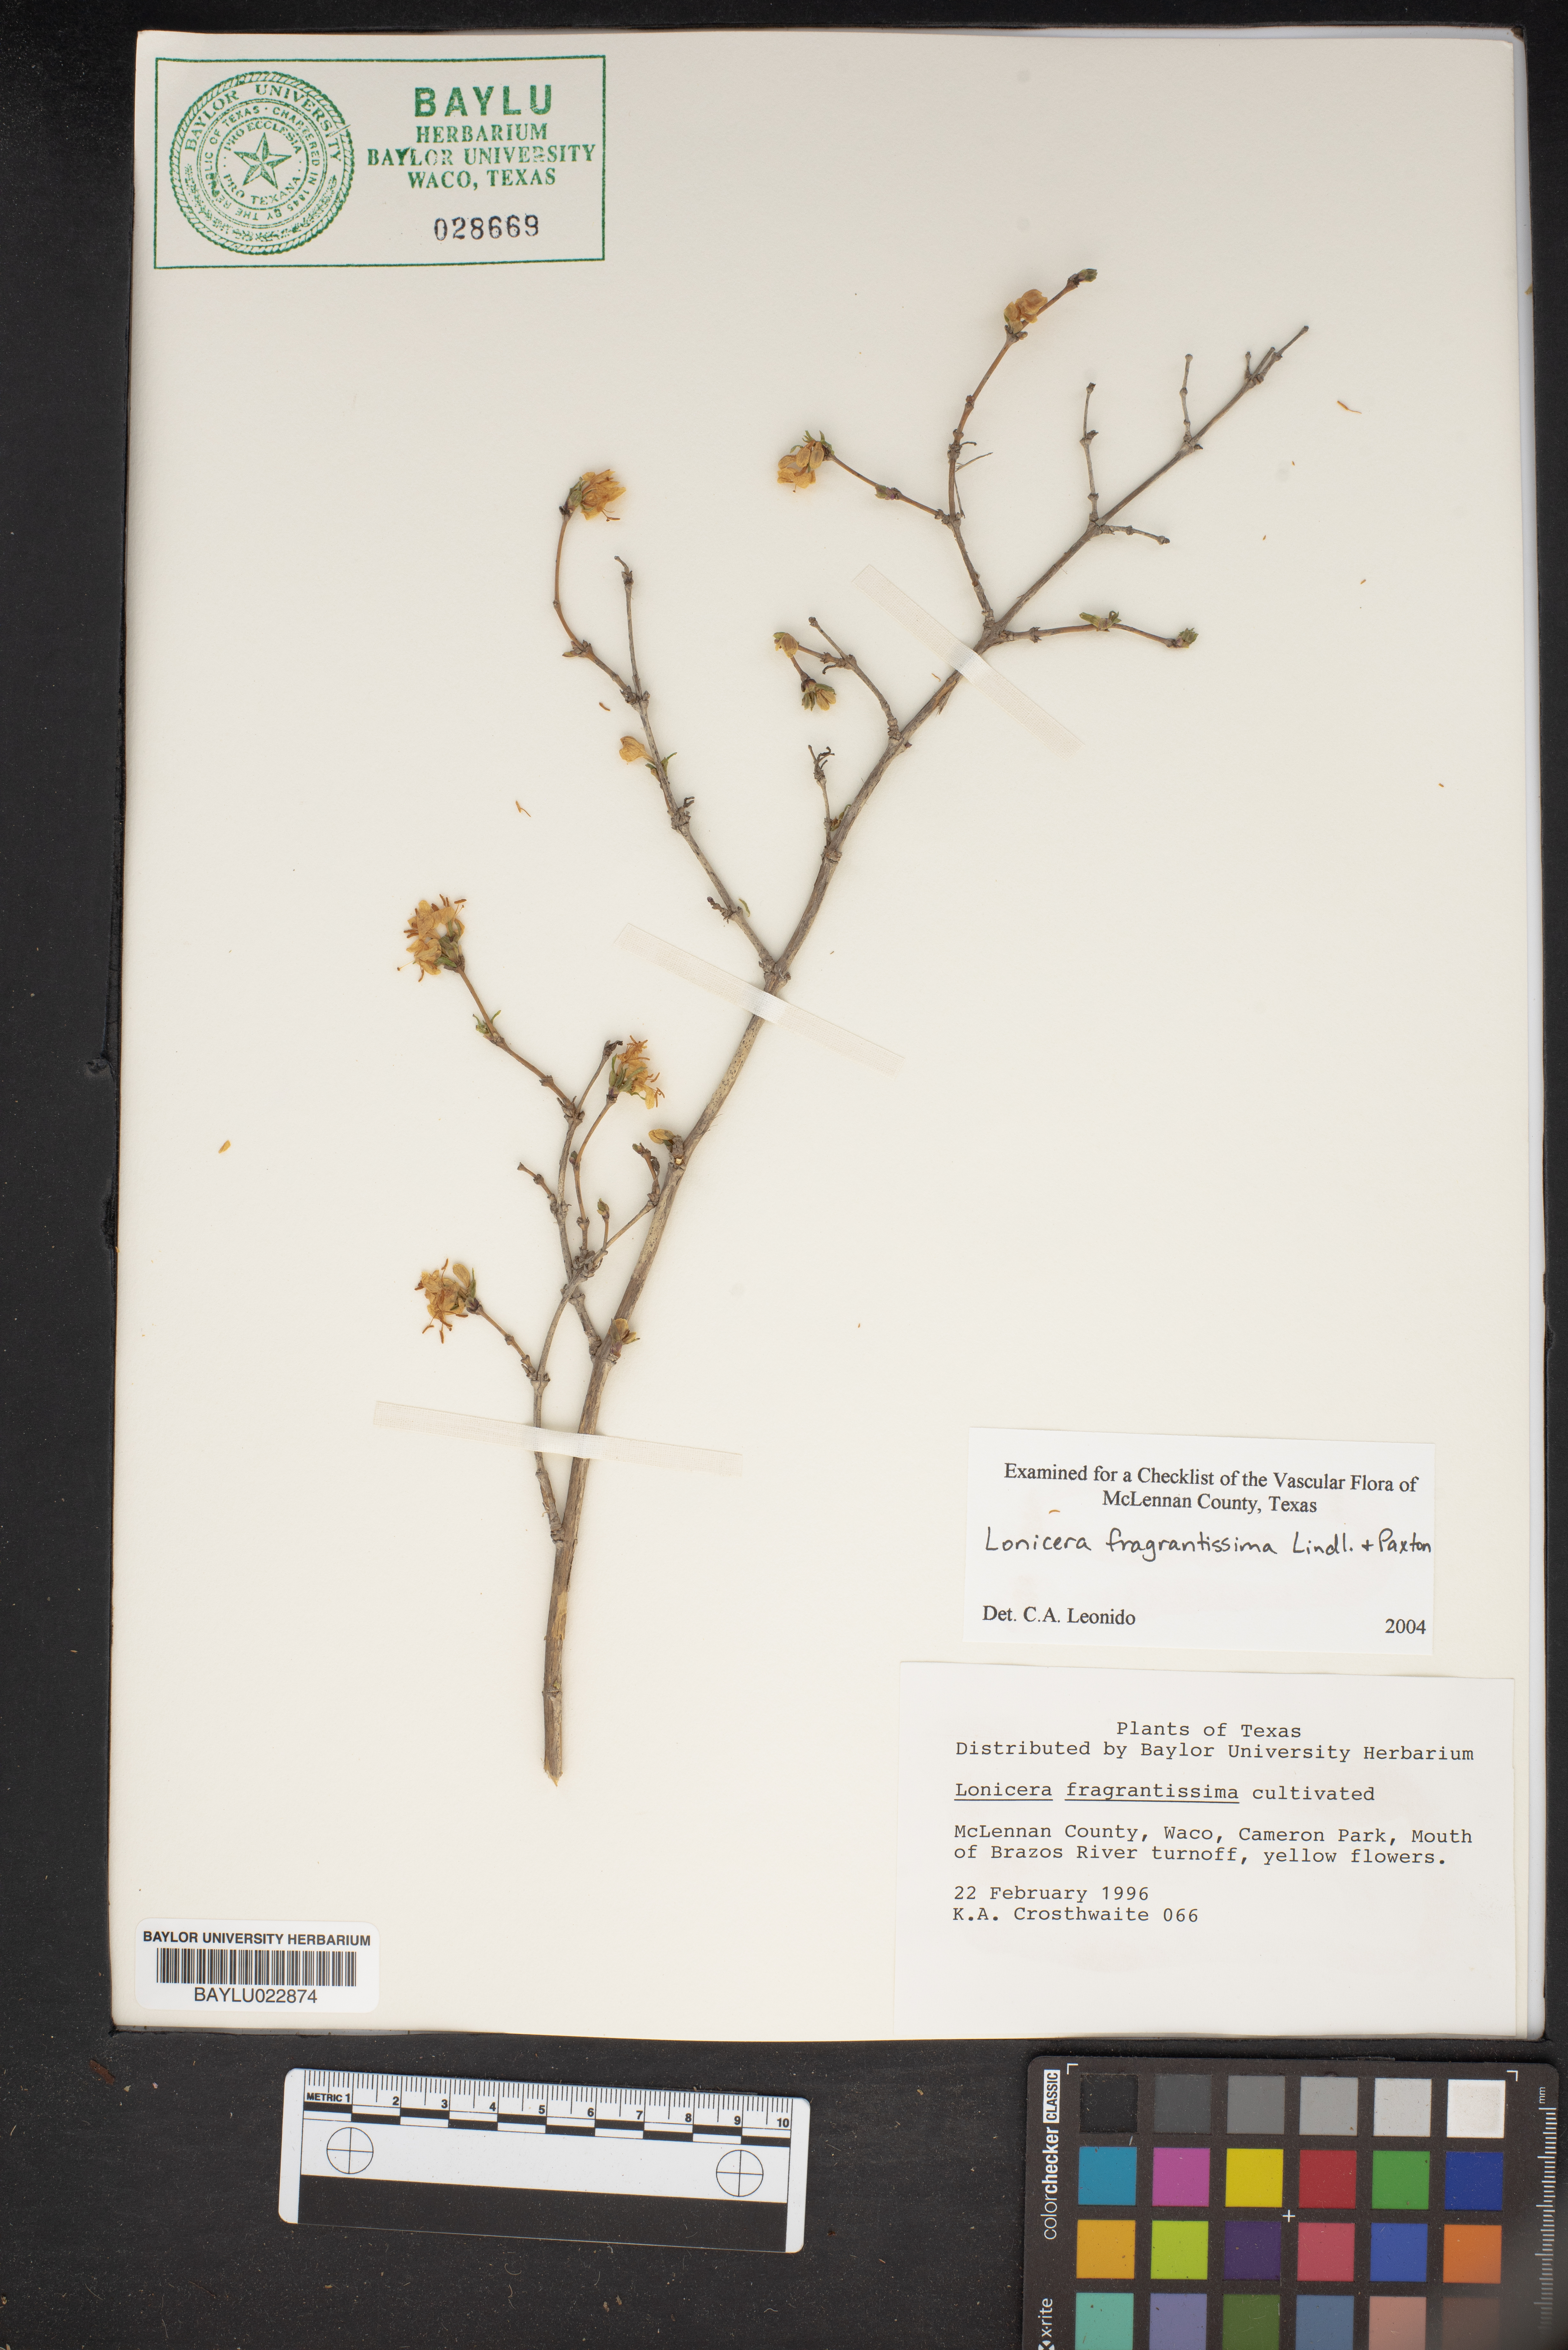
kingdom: Plantae
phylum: Tracheophyta
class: Magnoliopsida
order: Dipsacales
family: Caprifoliaceae
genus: Lonicera
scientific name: Lonicera fragrantissima
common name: Fragrant honeysuckle
